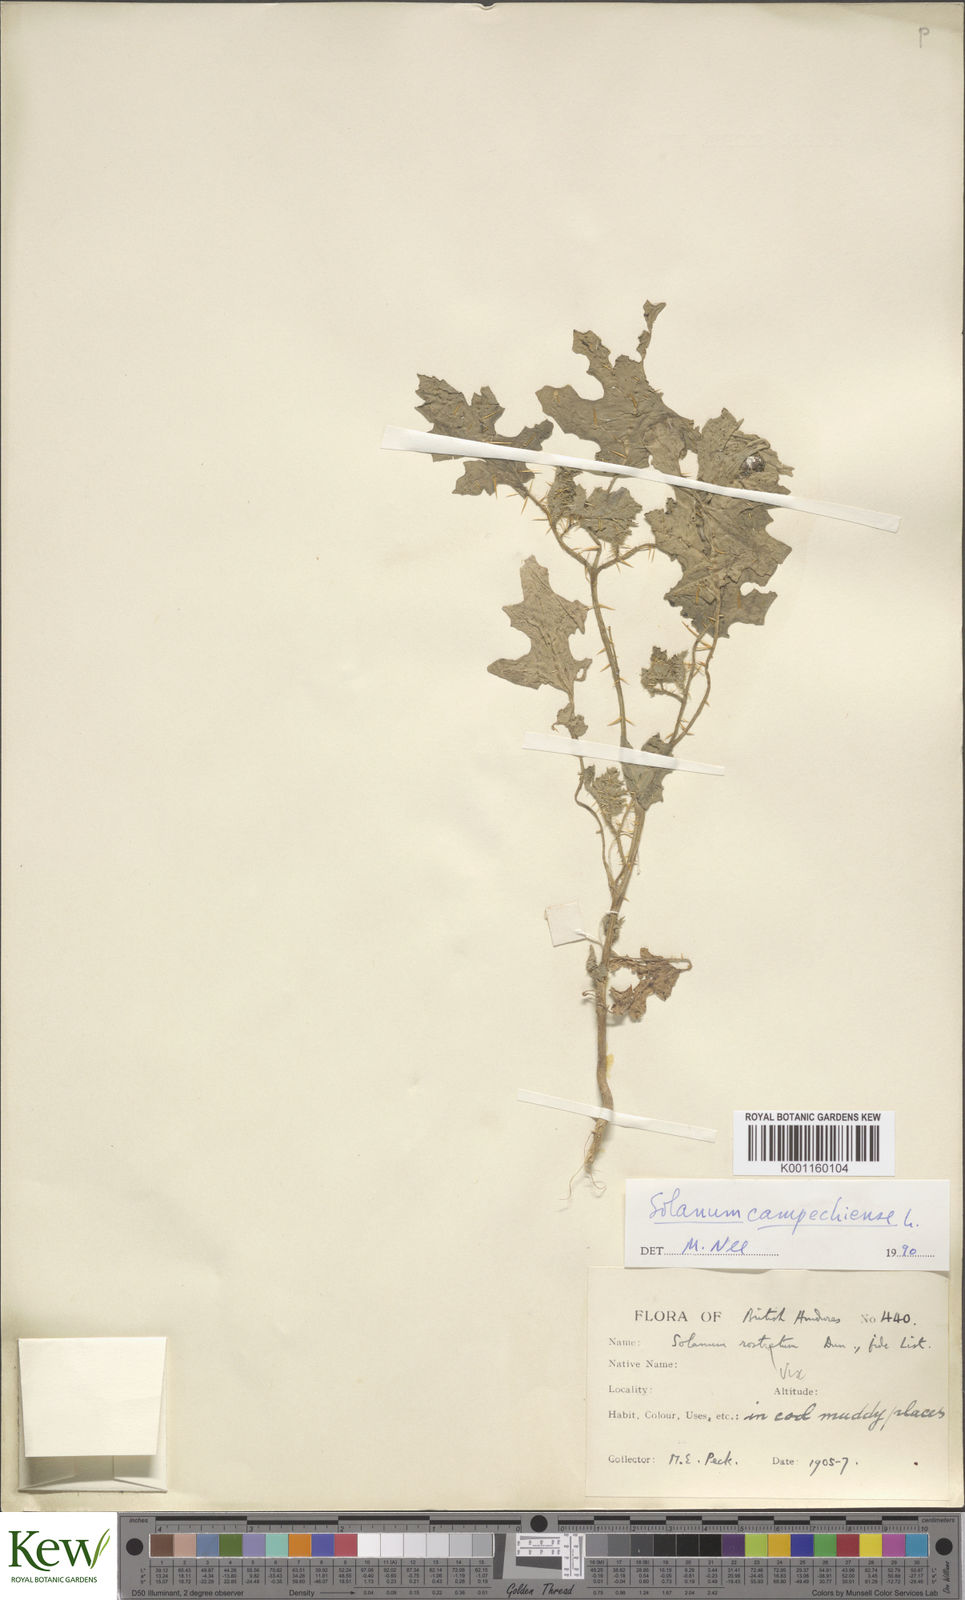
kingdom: Plantae
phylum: Tracheophyta
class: Magnoliopsida
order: Solanales
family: Solanaceae
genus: Solanum
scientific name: Solanum campechiense
